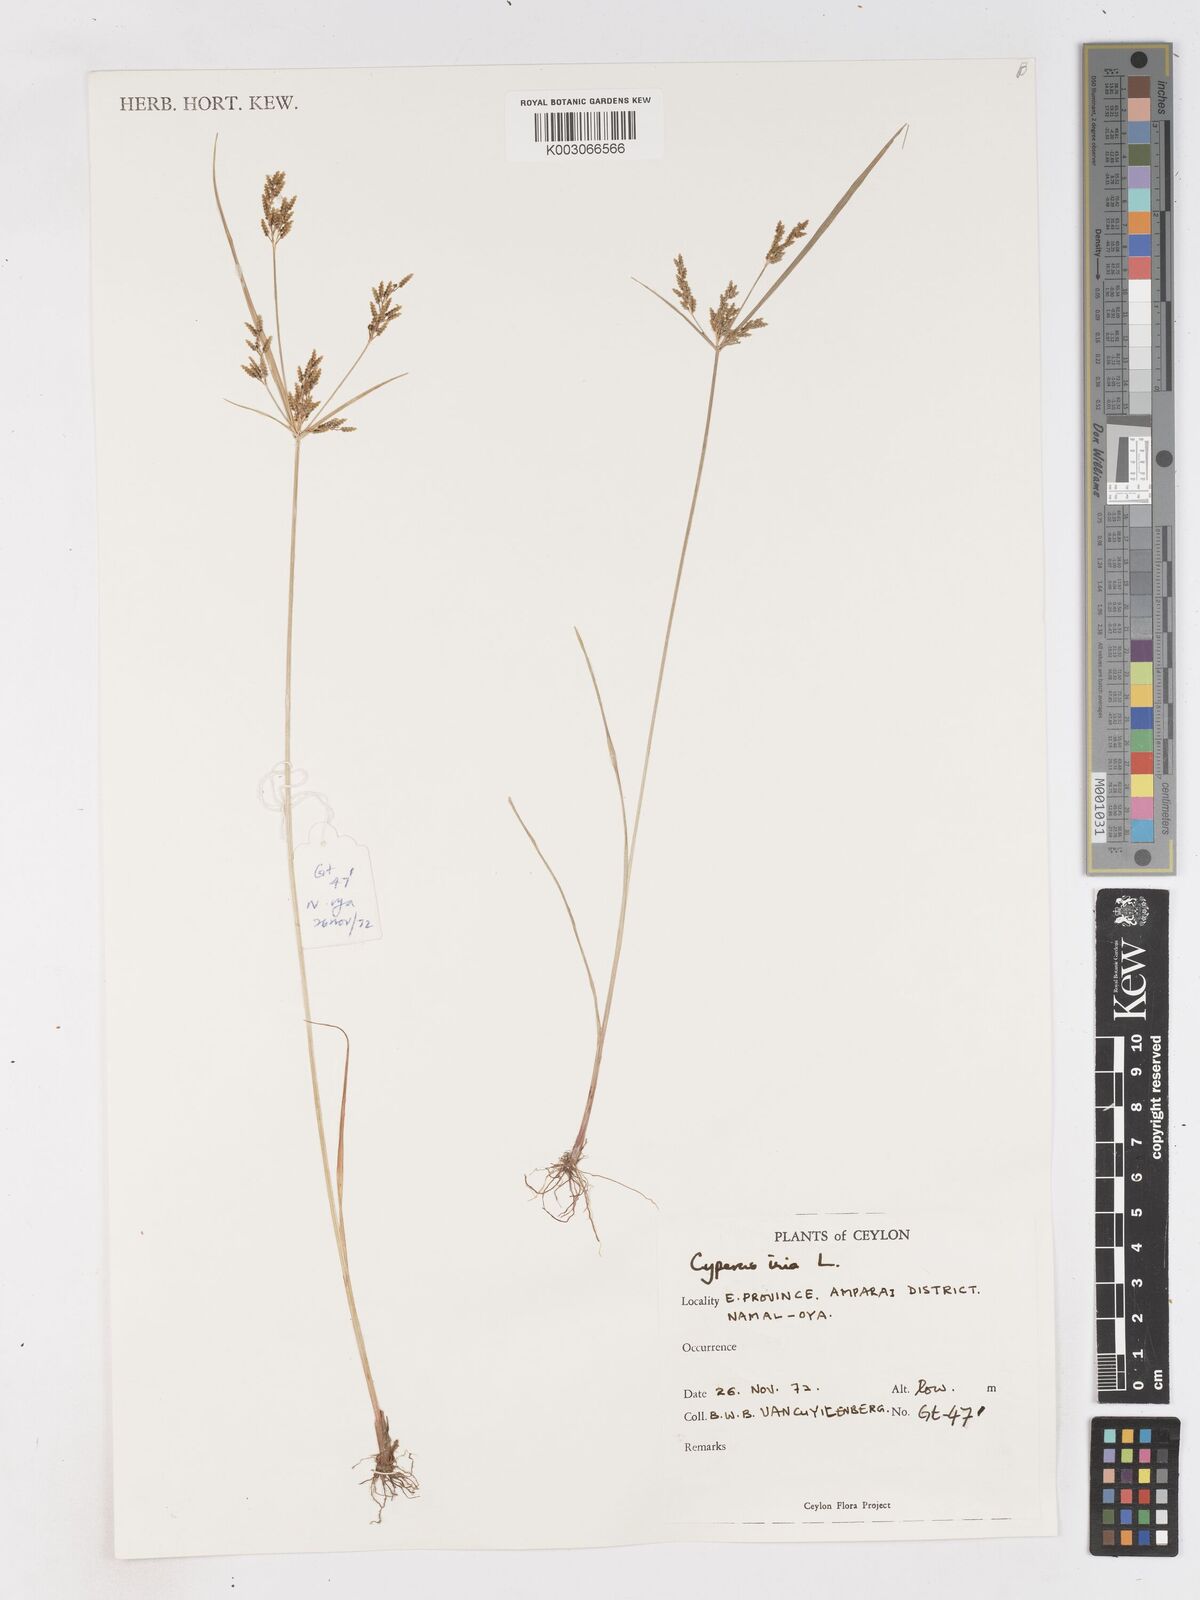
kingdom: Plantae
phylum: Tracheophyta
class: Liliopsida
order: Poales
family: Cyperaceae
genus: Cyperus
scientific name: Cyperus iria
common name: Ricefield flatsedge
